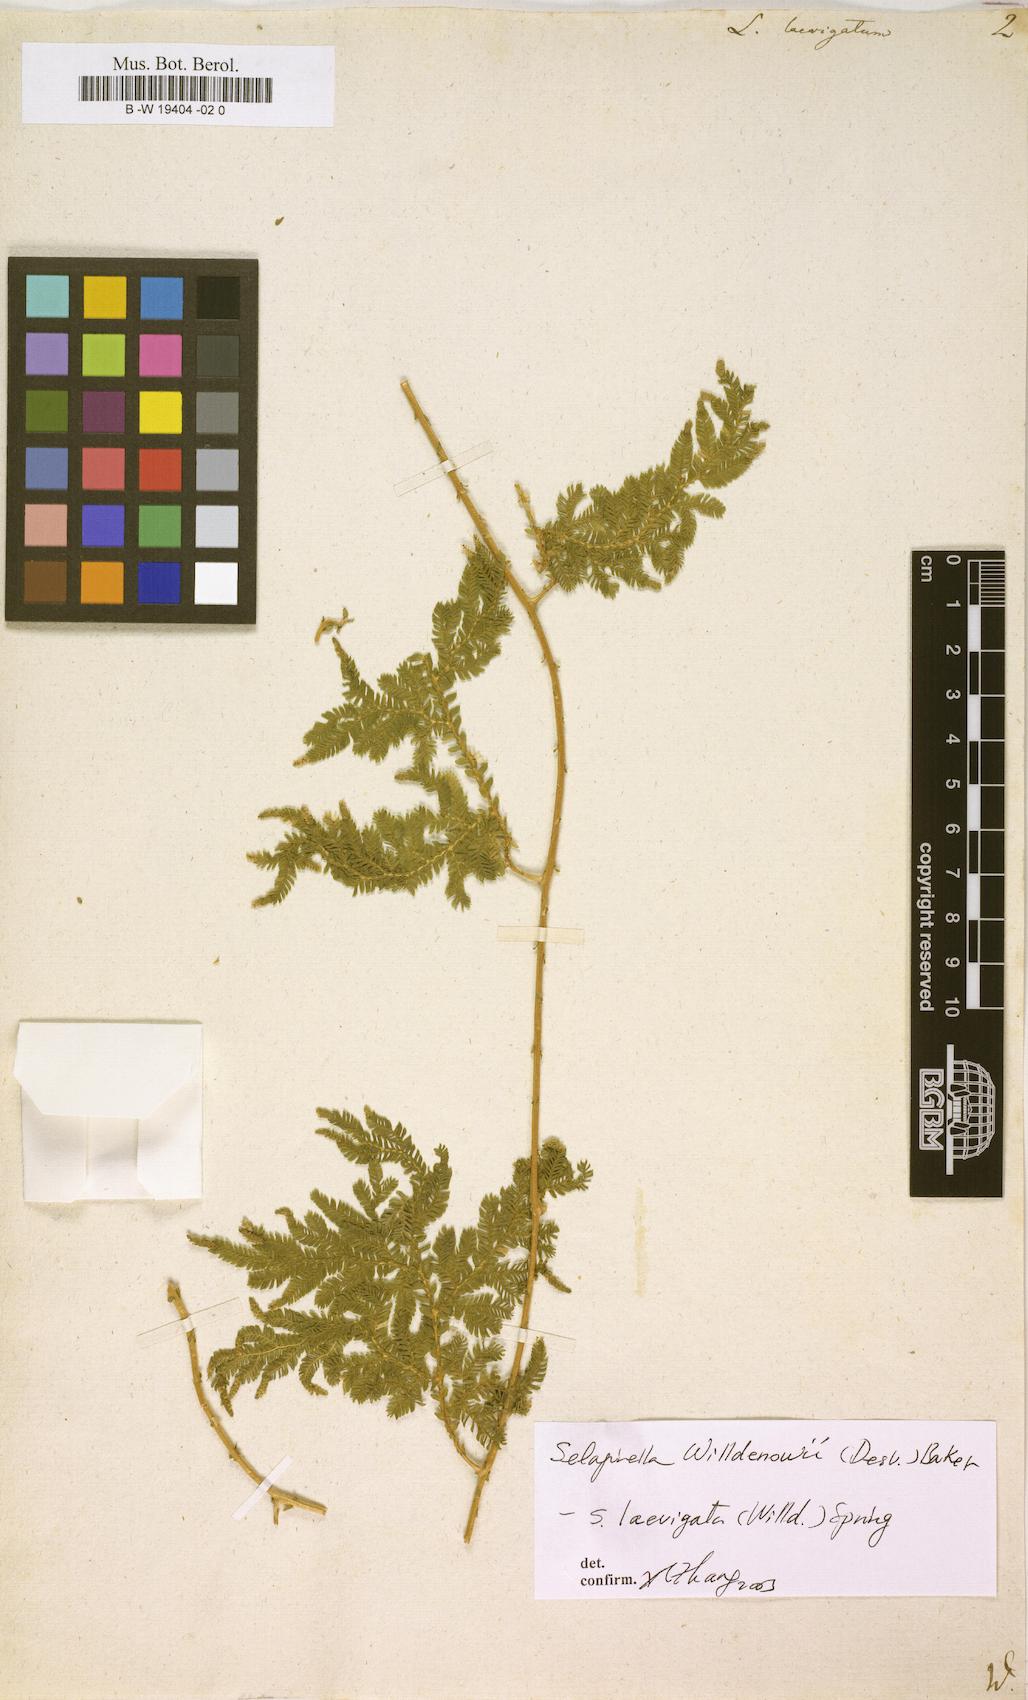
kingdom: Plantae
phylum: Tracheophyta
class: Lycopodiopsida
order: Selaginellales
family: Selaginellaceae
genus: Selaginella
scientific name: Selaginella
